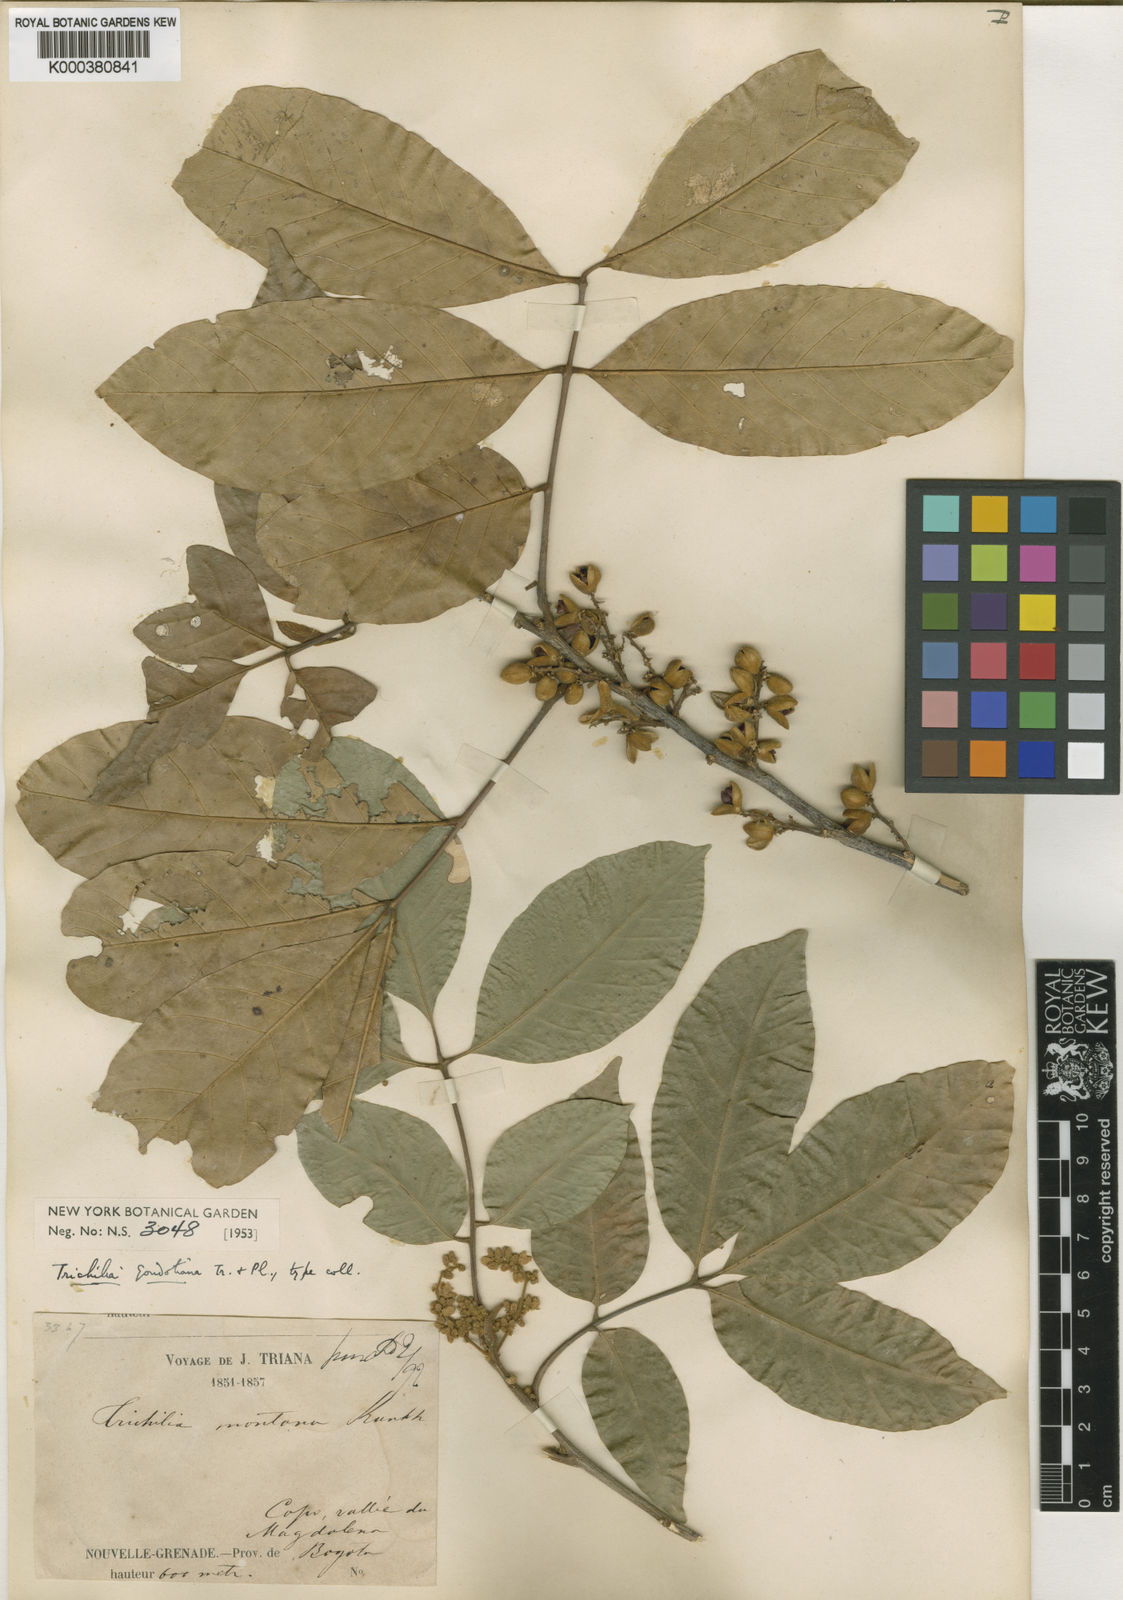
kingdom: Plantae
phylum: Tracheophyta
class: Magnoliopsida
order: Sapindales
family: Meliaceae
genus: Trichilia
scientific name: Trichilia pallida
